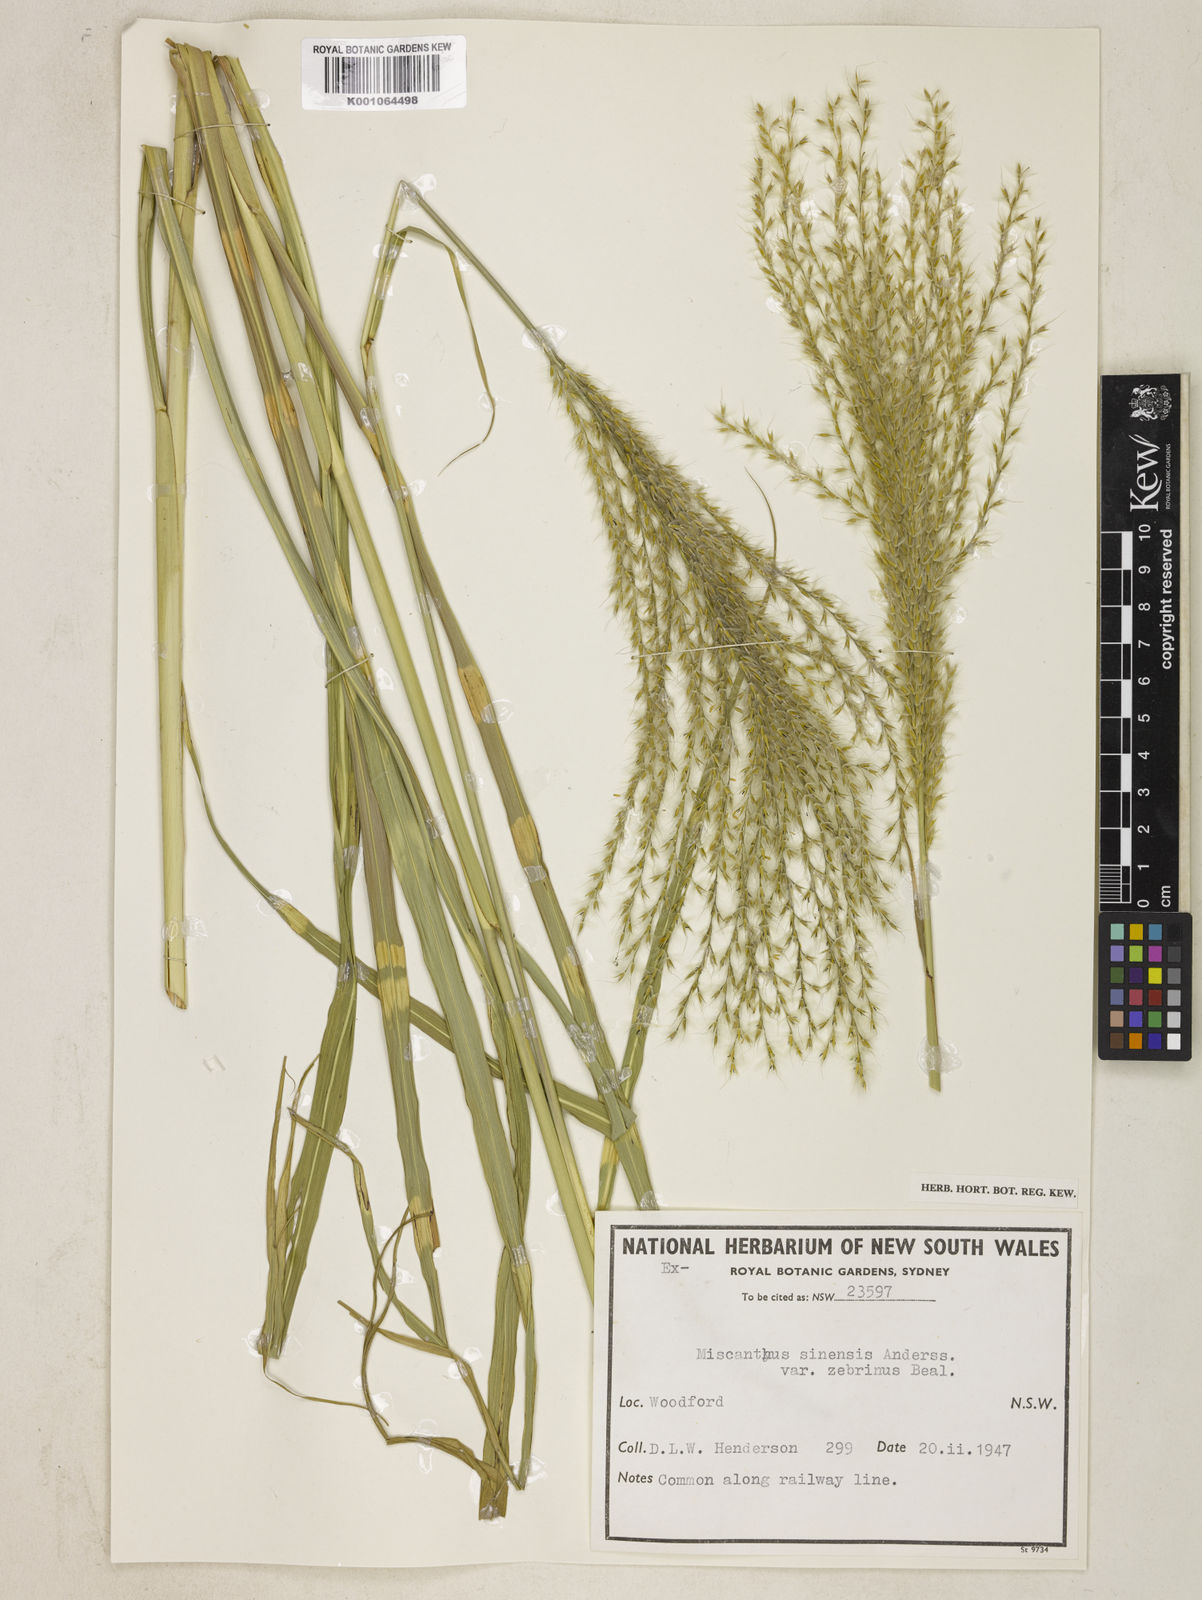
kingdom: Plantae
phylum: Tracheophyta
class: Liliopsida
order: Poales
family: Poaceae
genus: Miscanthus
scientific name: Miscanthus sinensis
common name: Chinese silvergrass
